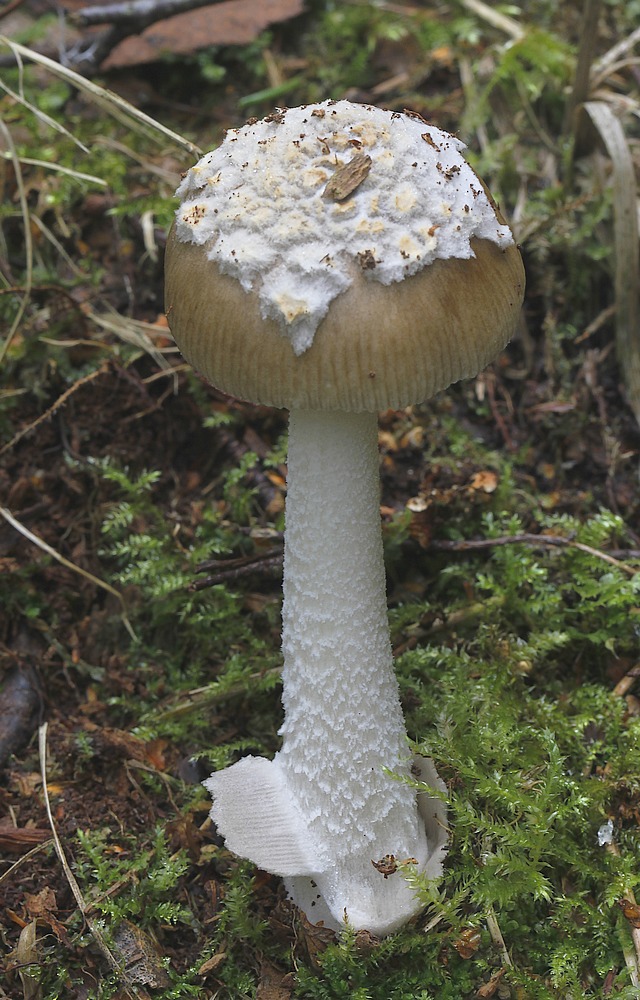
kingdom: Fungi
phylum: Basidiomycota
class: Agaricomycetes
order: Agaricales
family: Amanitaceae
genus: Amanita
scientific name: Amanita olivaceogrisea
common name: olivengrå kam-fluesvamp
